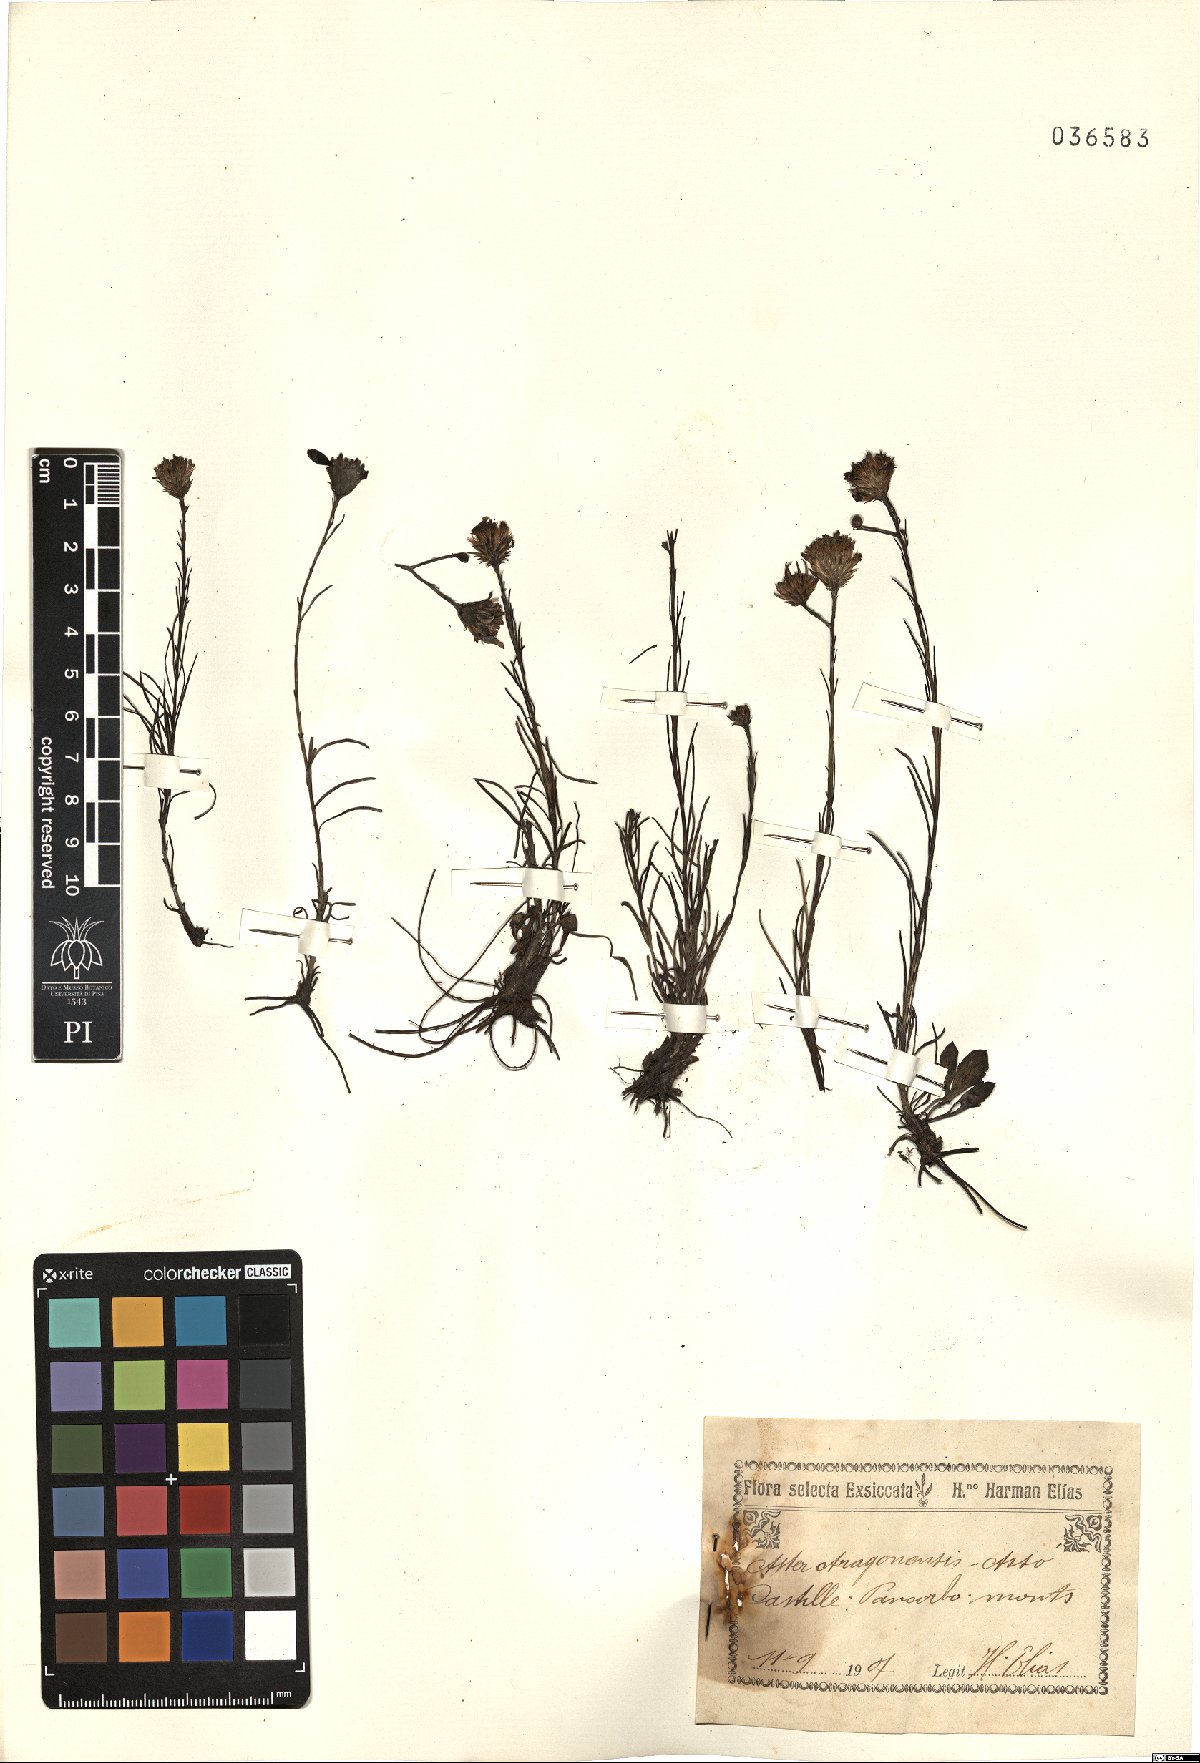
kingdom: Plantae
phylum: Tracheophyta
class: Magnoliopsida
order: Asterales
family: Asteraceae
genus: Galatella
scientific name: Galatella aragonensis
